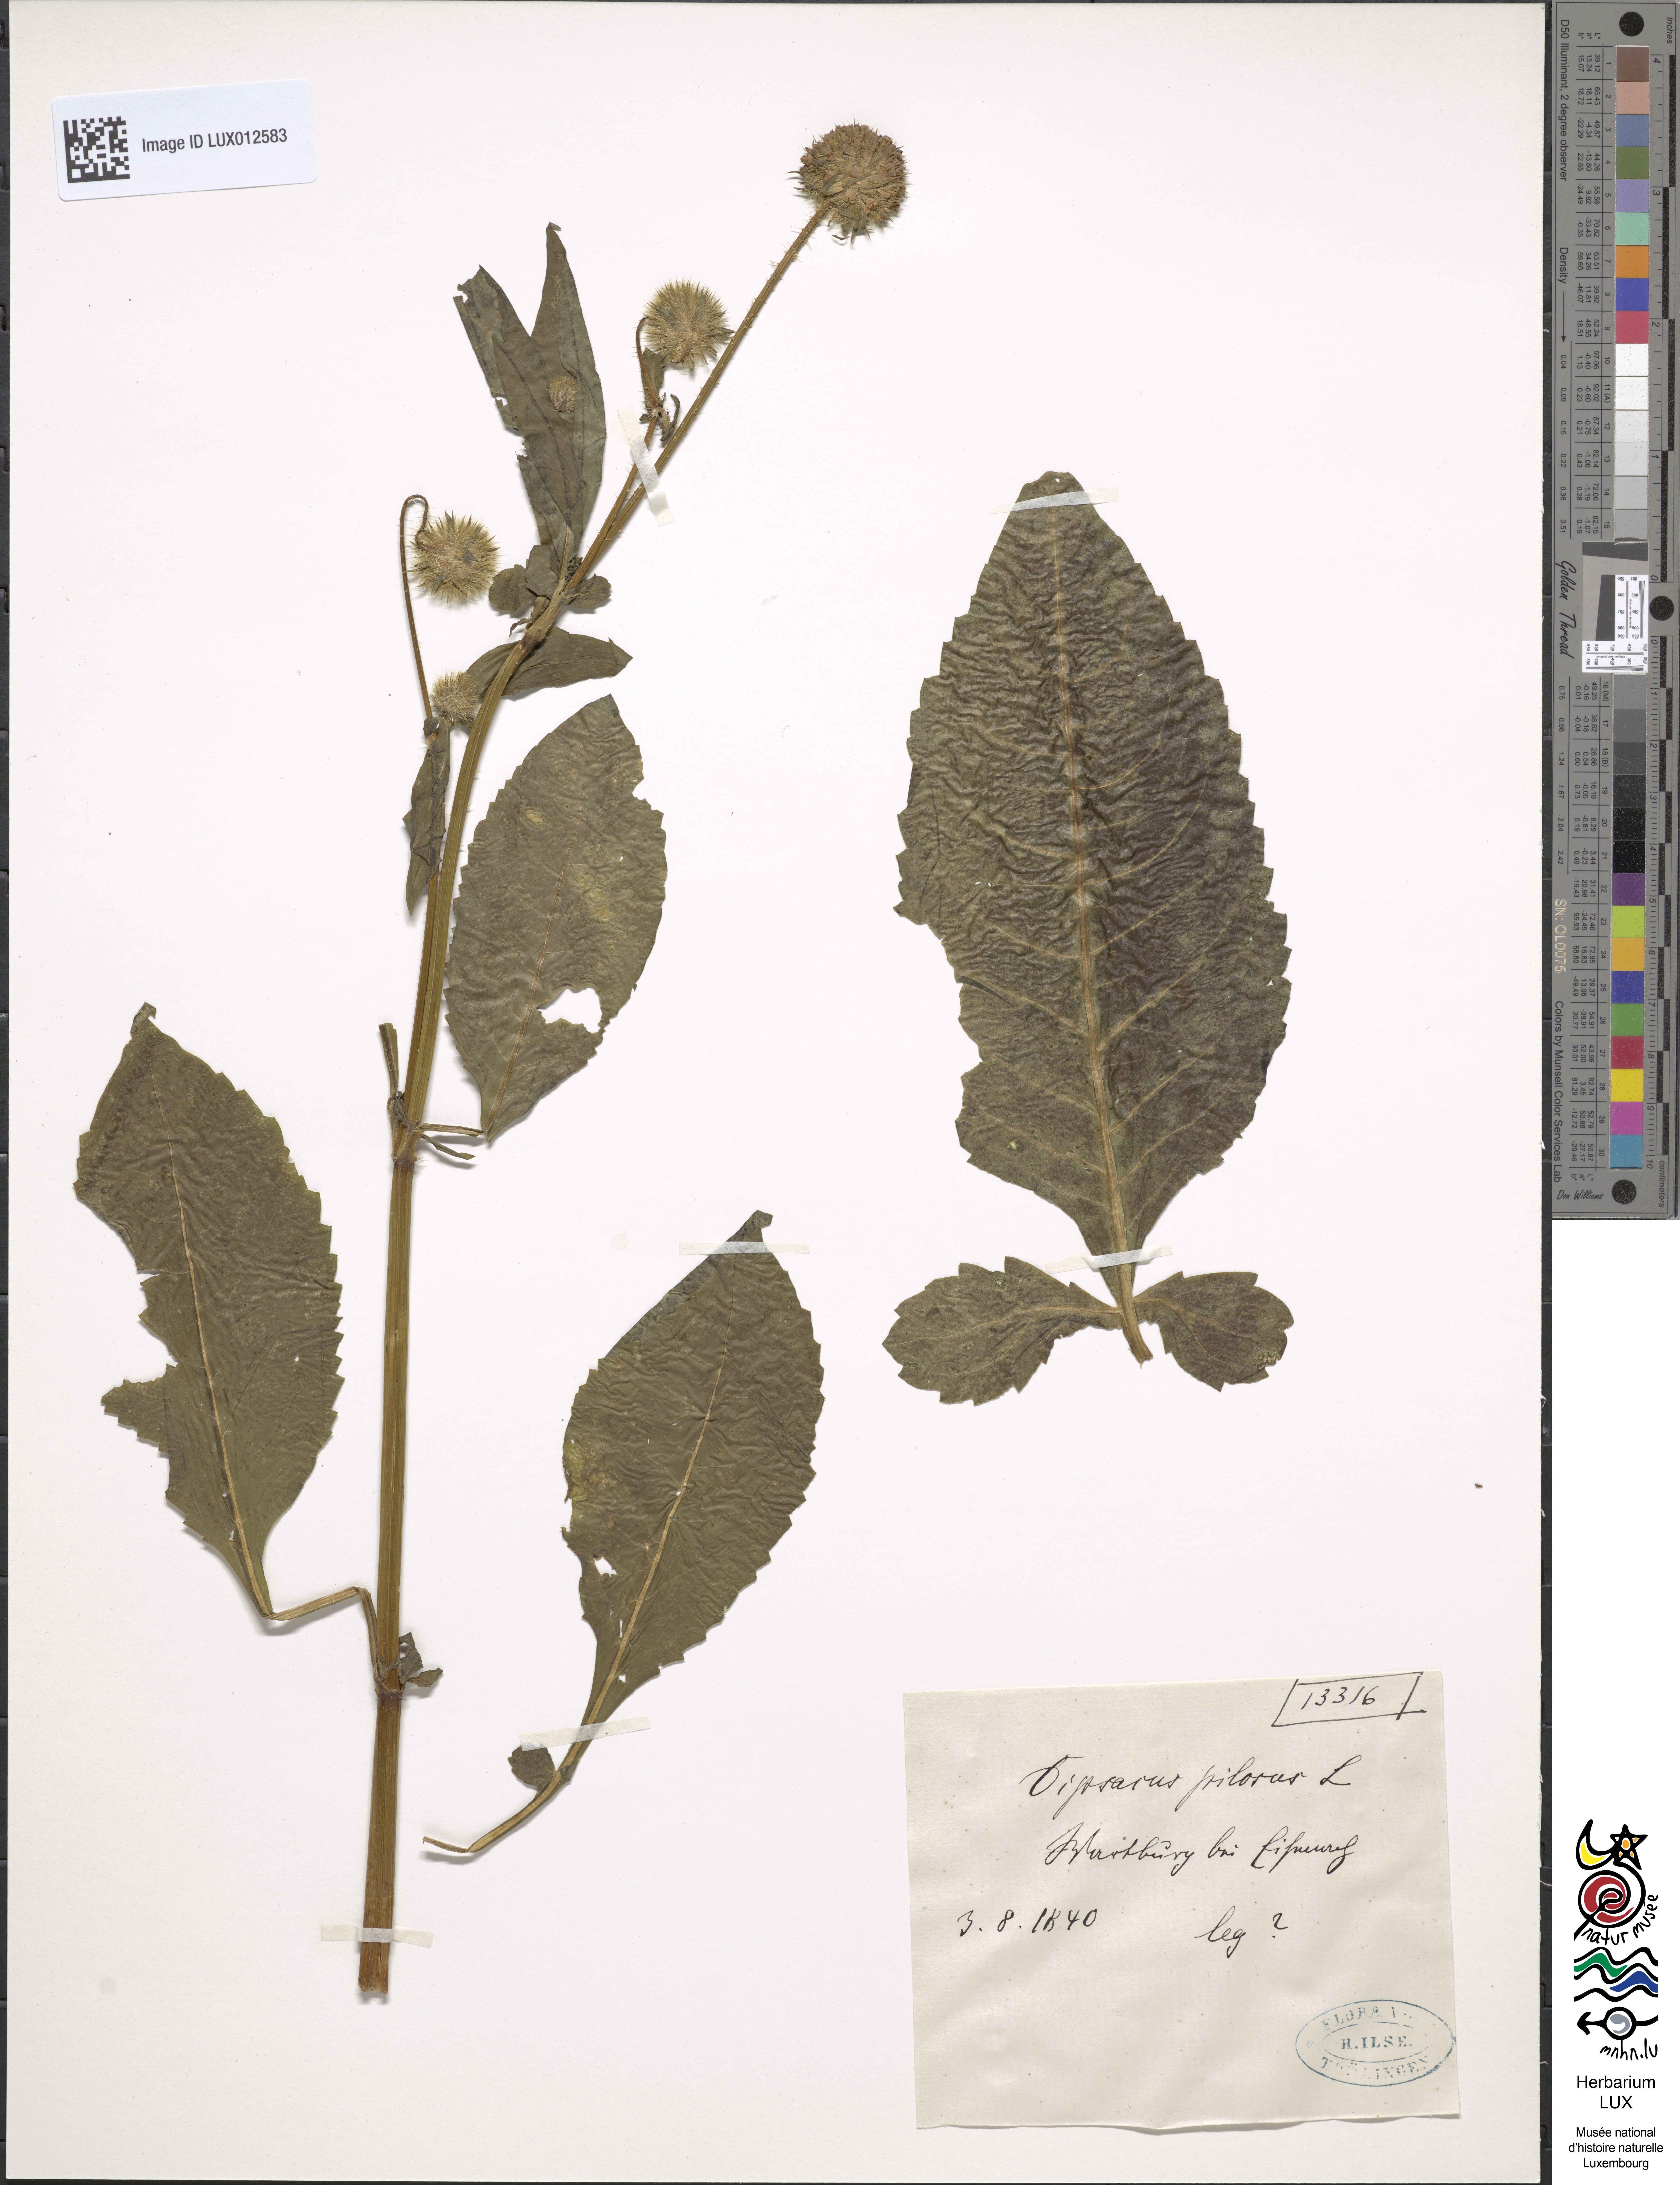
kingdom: Plantae
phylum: Tracheophyta
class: Magnoliopsida
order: Dipsacales
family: Caprifoliaceae
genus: Dipsacus
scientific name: Dipsacus pilosus
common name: Small teasel
